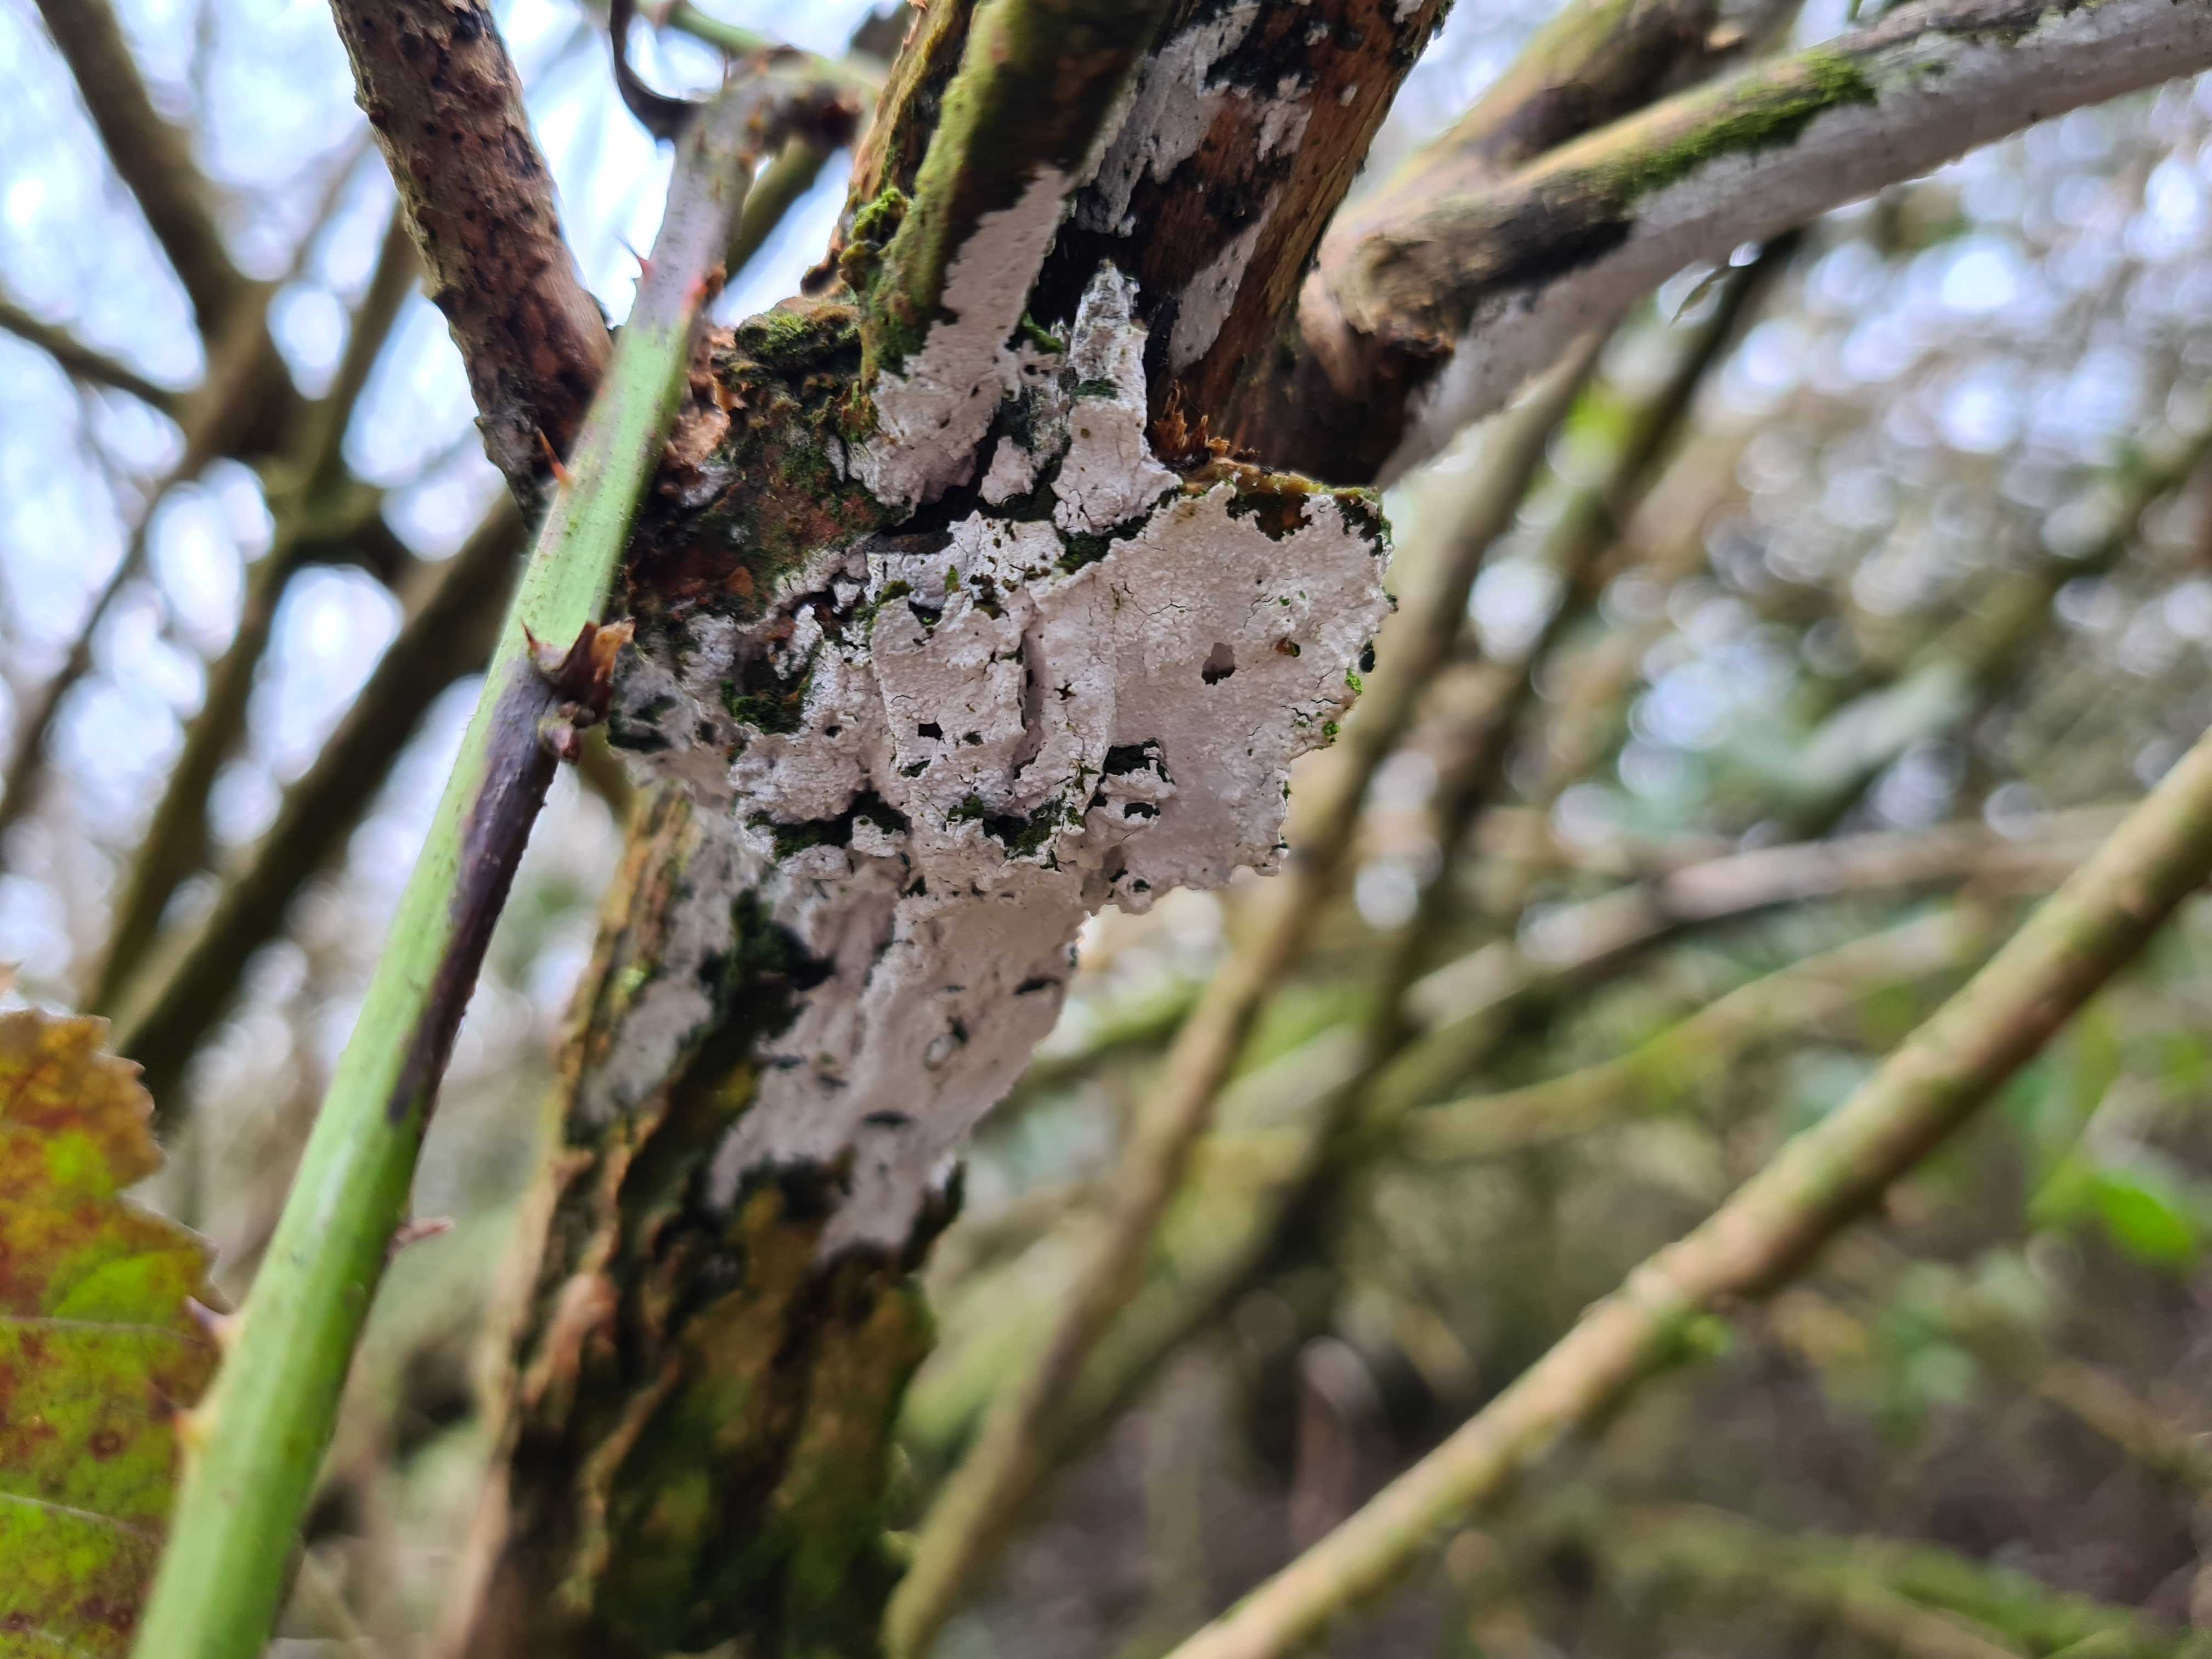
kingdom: Fungi
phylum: Basidiomycota
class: Agaricomycetes
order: Corticiales
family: Corticiaceae
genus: Lyomyces
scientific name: Lyomyces sambuci
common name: almindelig hyldehinde
